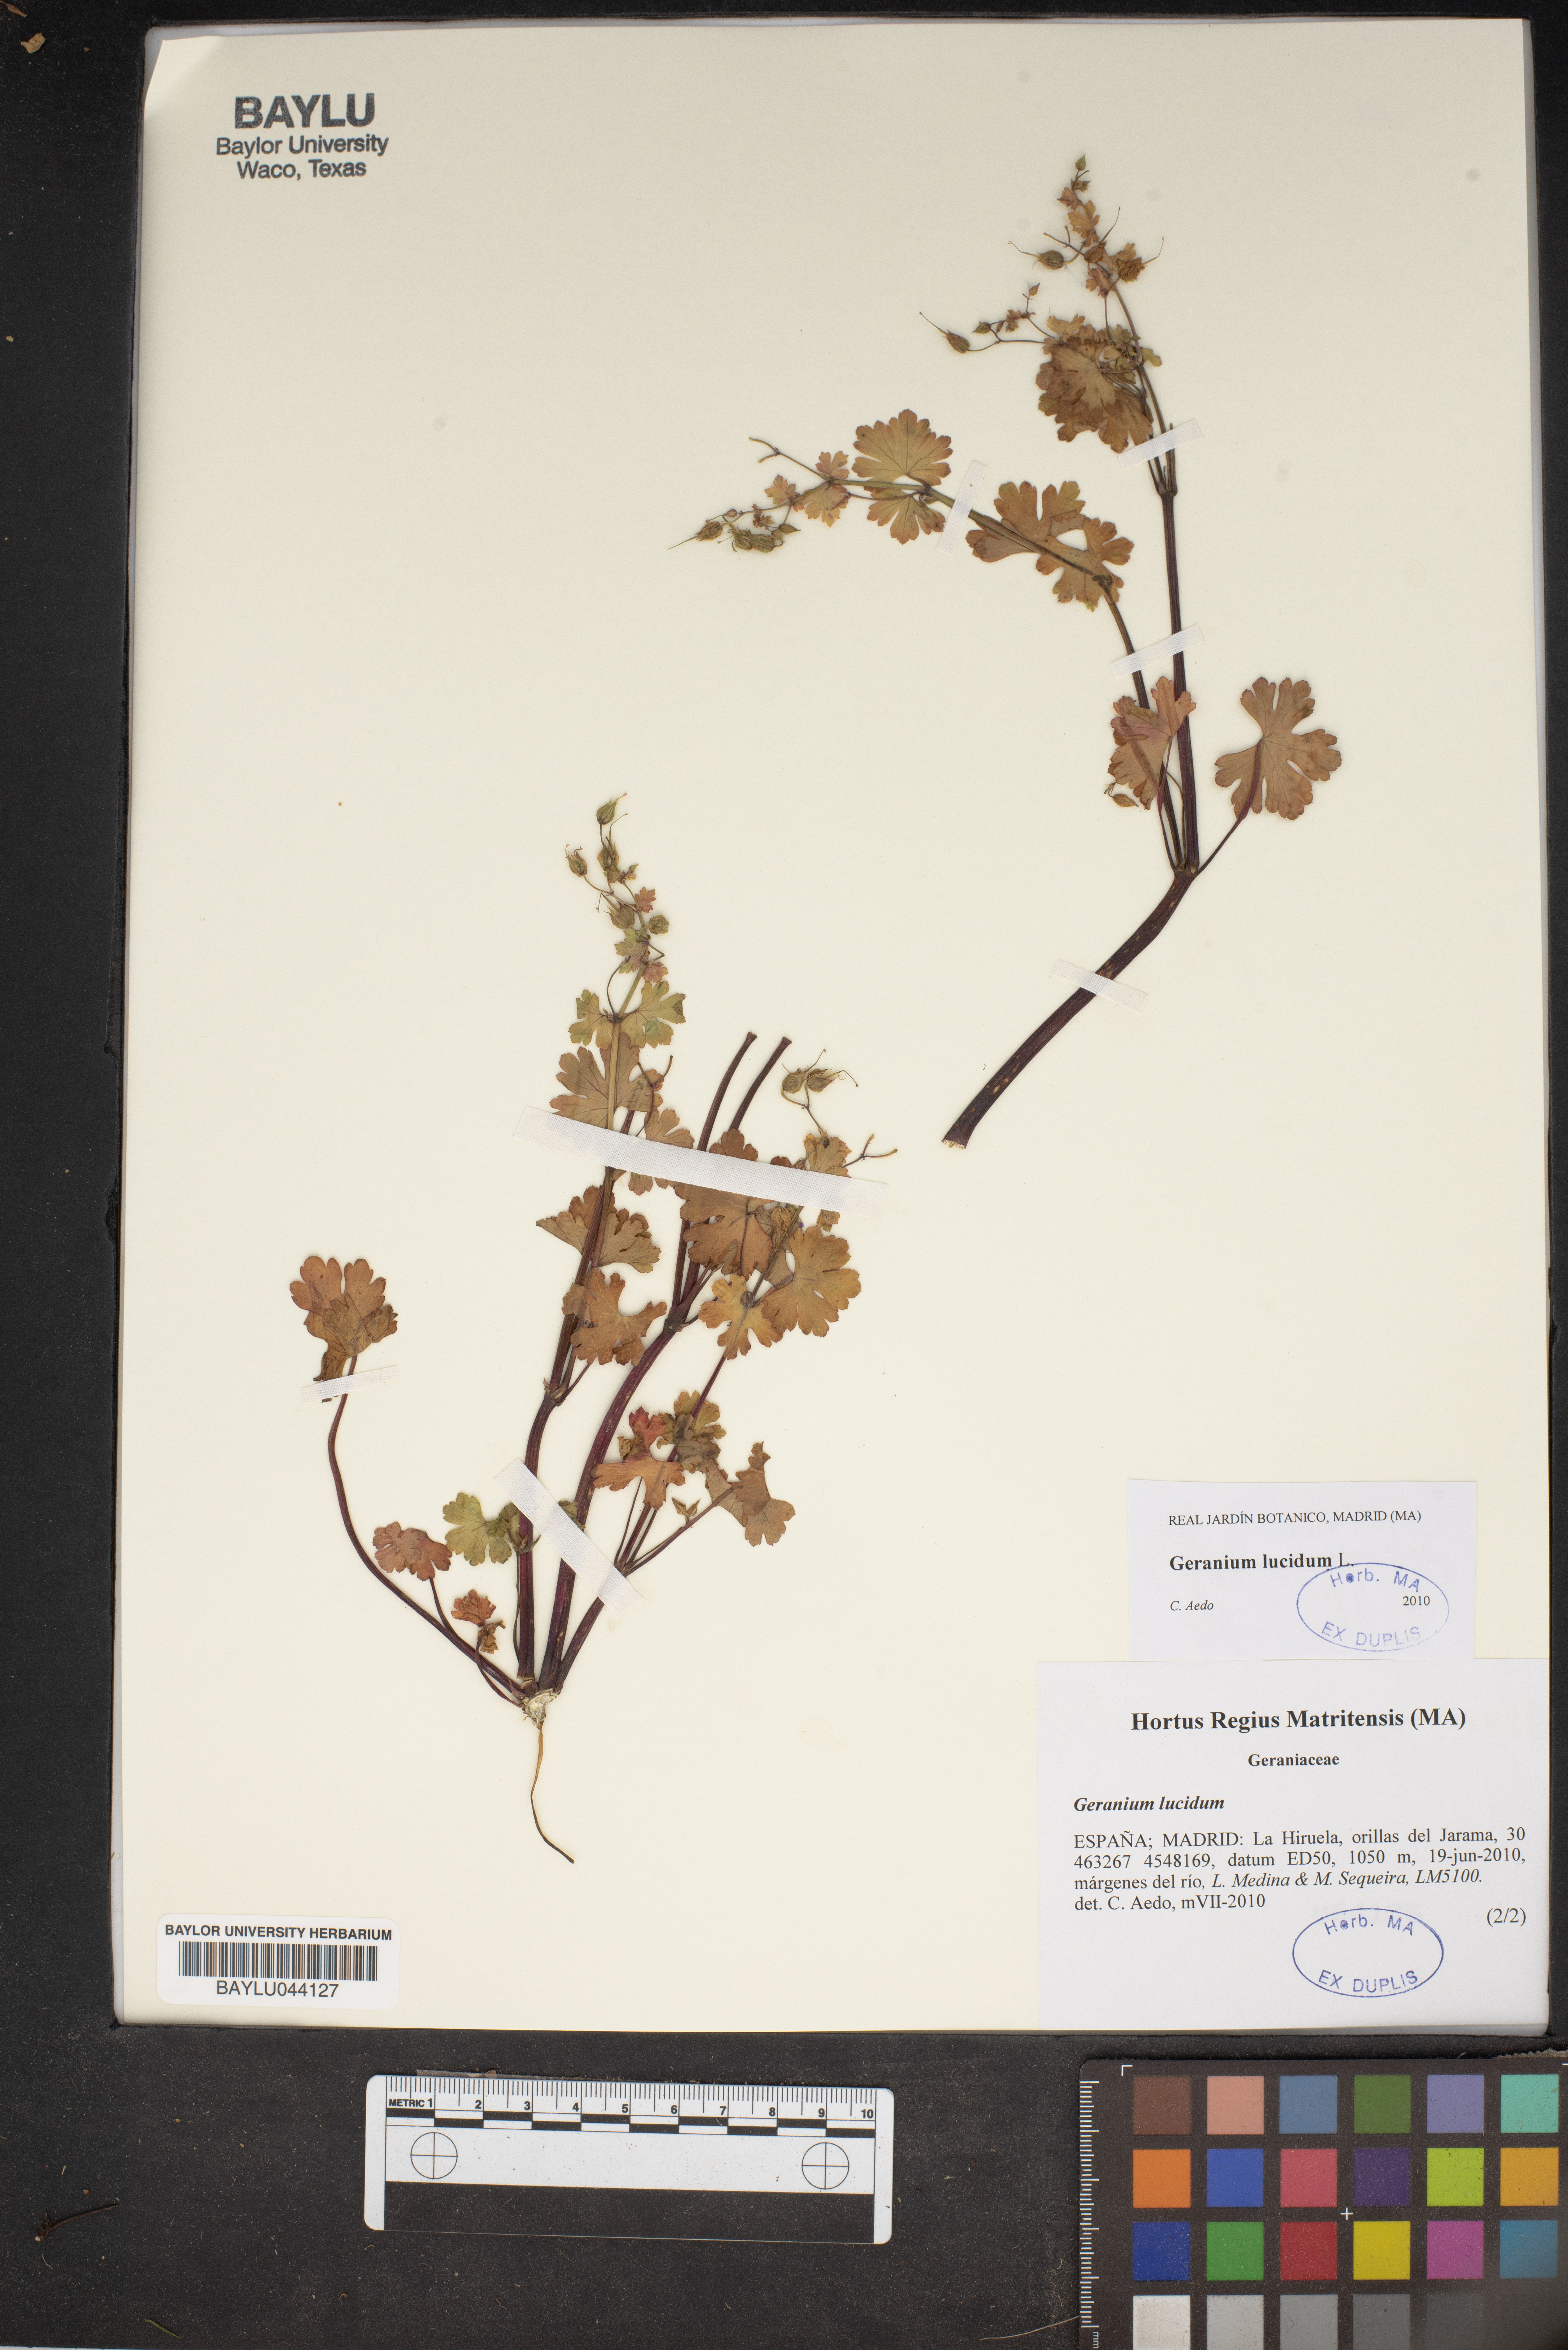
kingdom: Plantae
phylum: Tracheophyta
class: Magnoliopsida
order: Geraniales
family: Geraniaceae
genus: Geranium
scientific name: Geranium lucidum
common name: Shining crane's-bill
